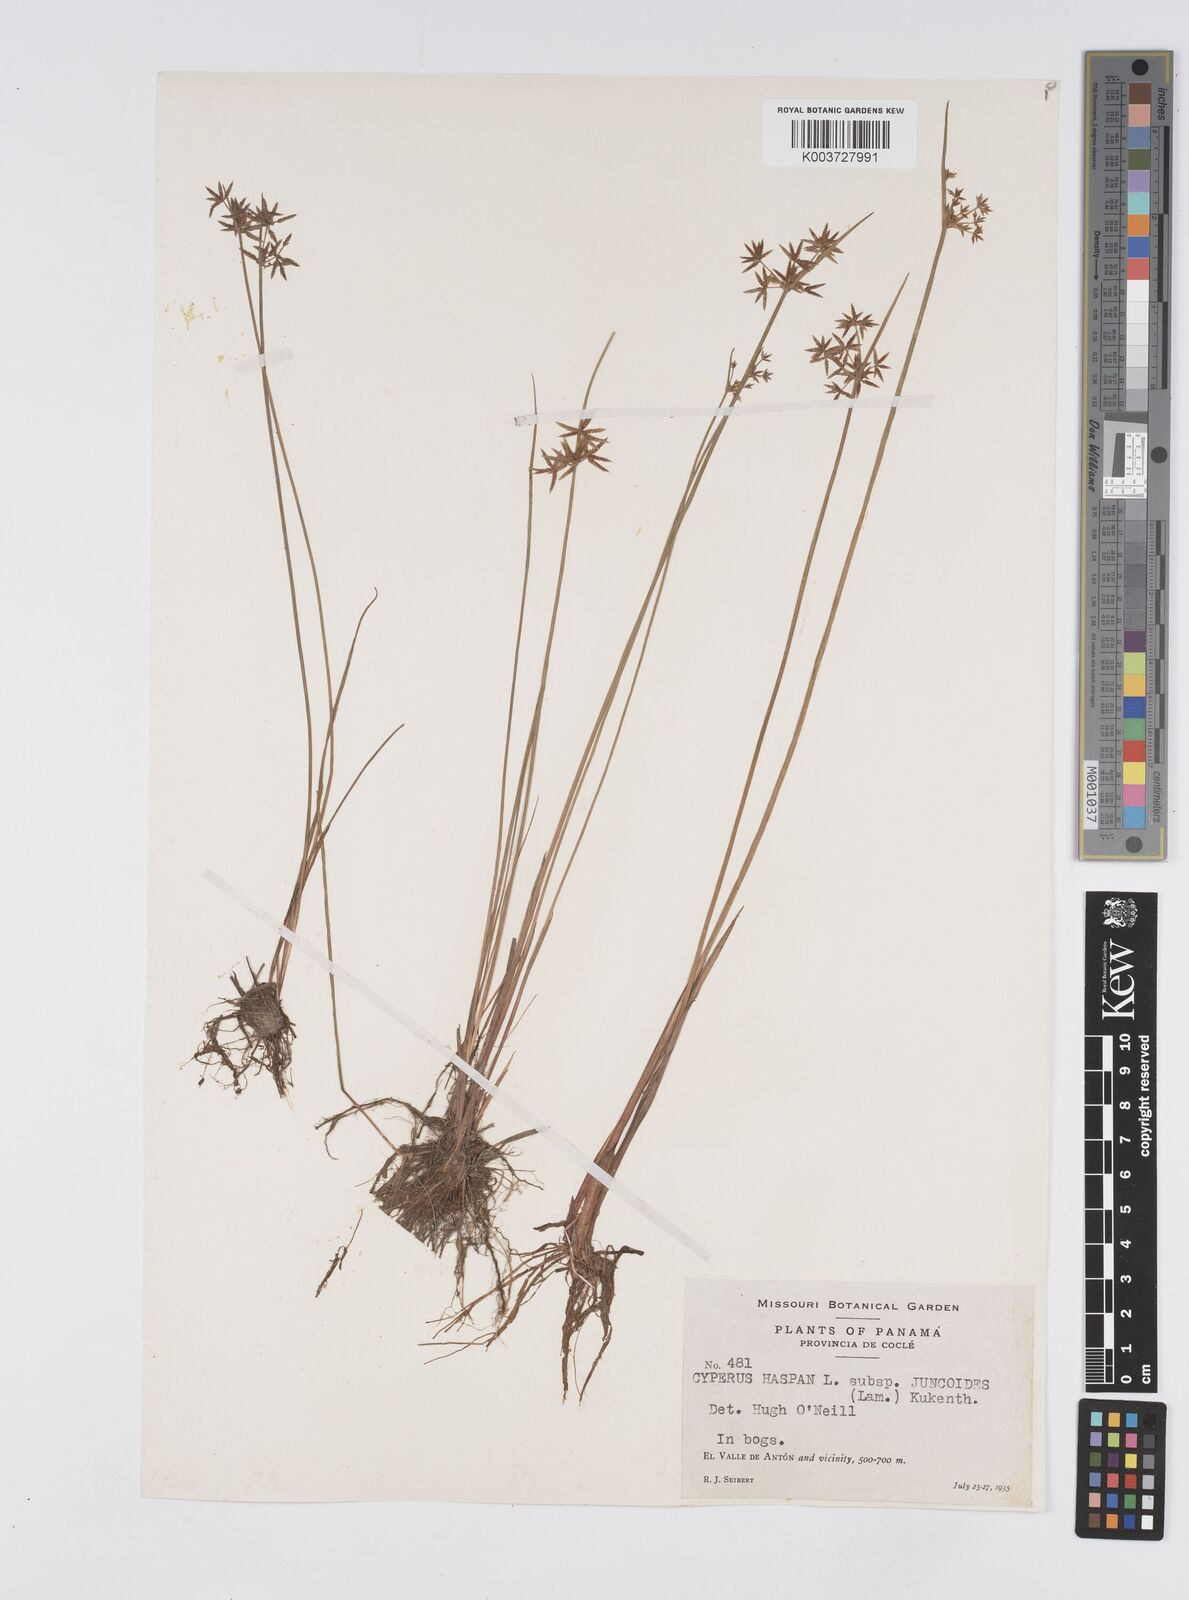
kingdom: Plantae
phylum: Tracheophyta
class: Liliopsida
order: Poales
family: Cyperaceae
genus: Cyperus
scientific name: Cyperus haspan
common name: Haspan flatsedge
